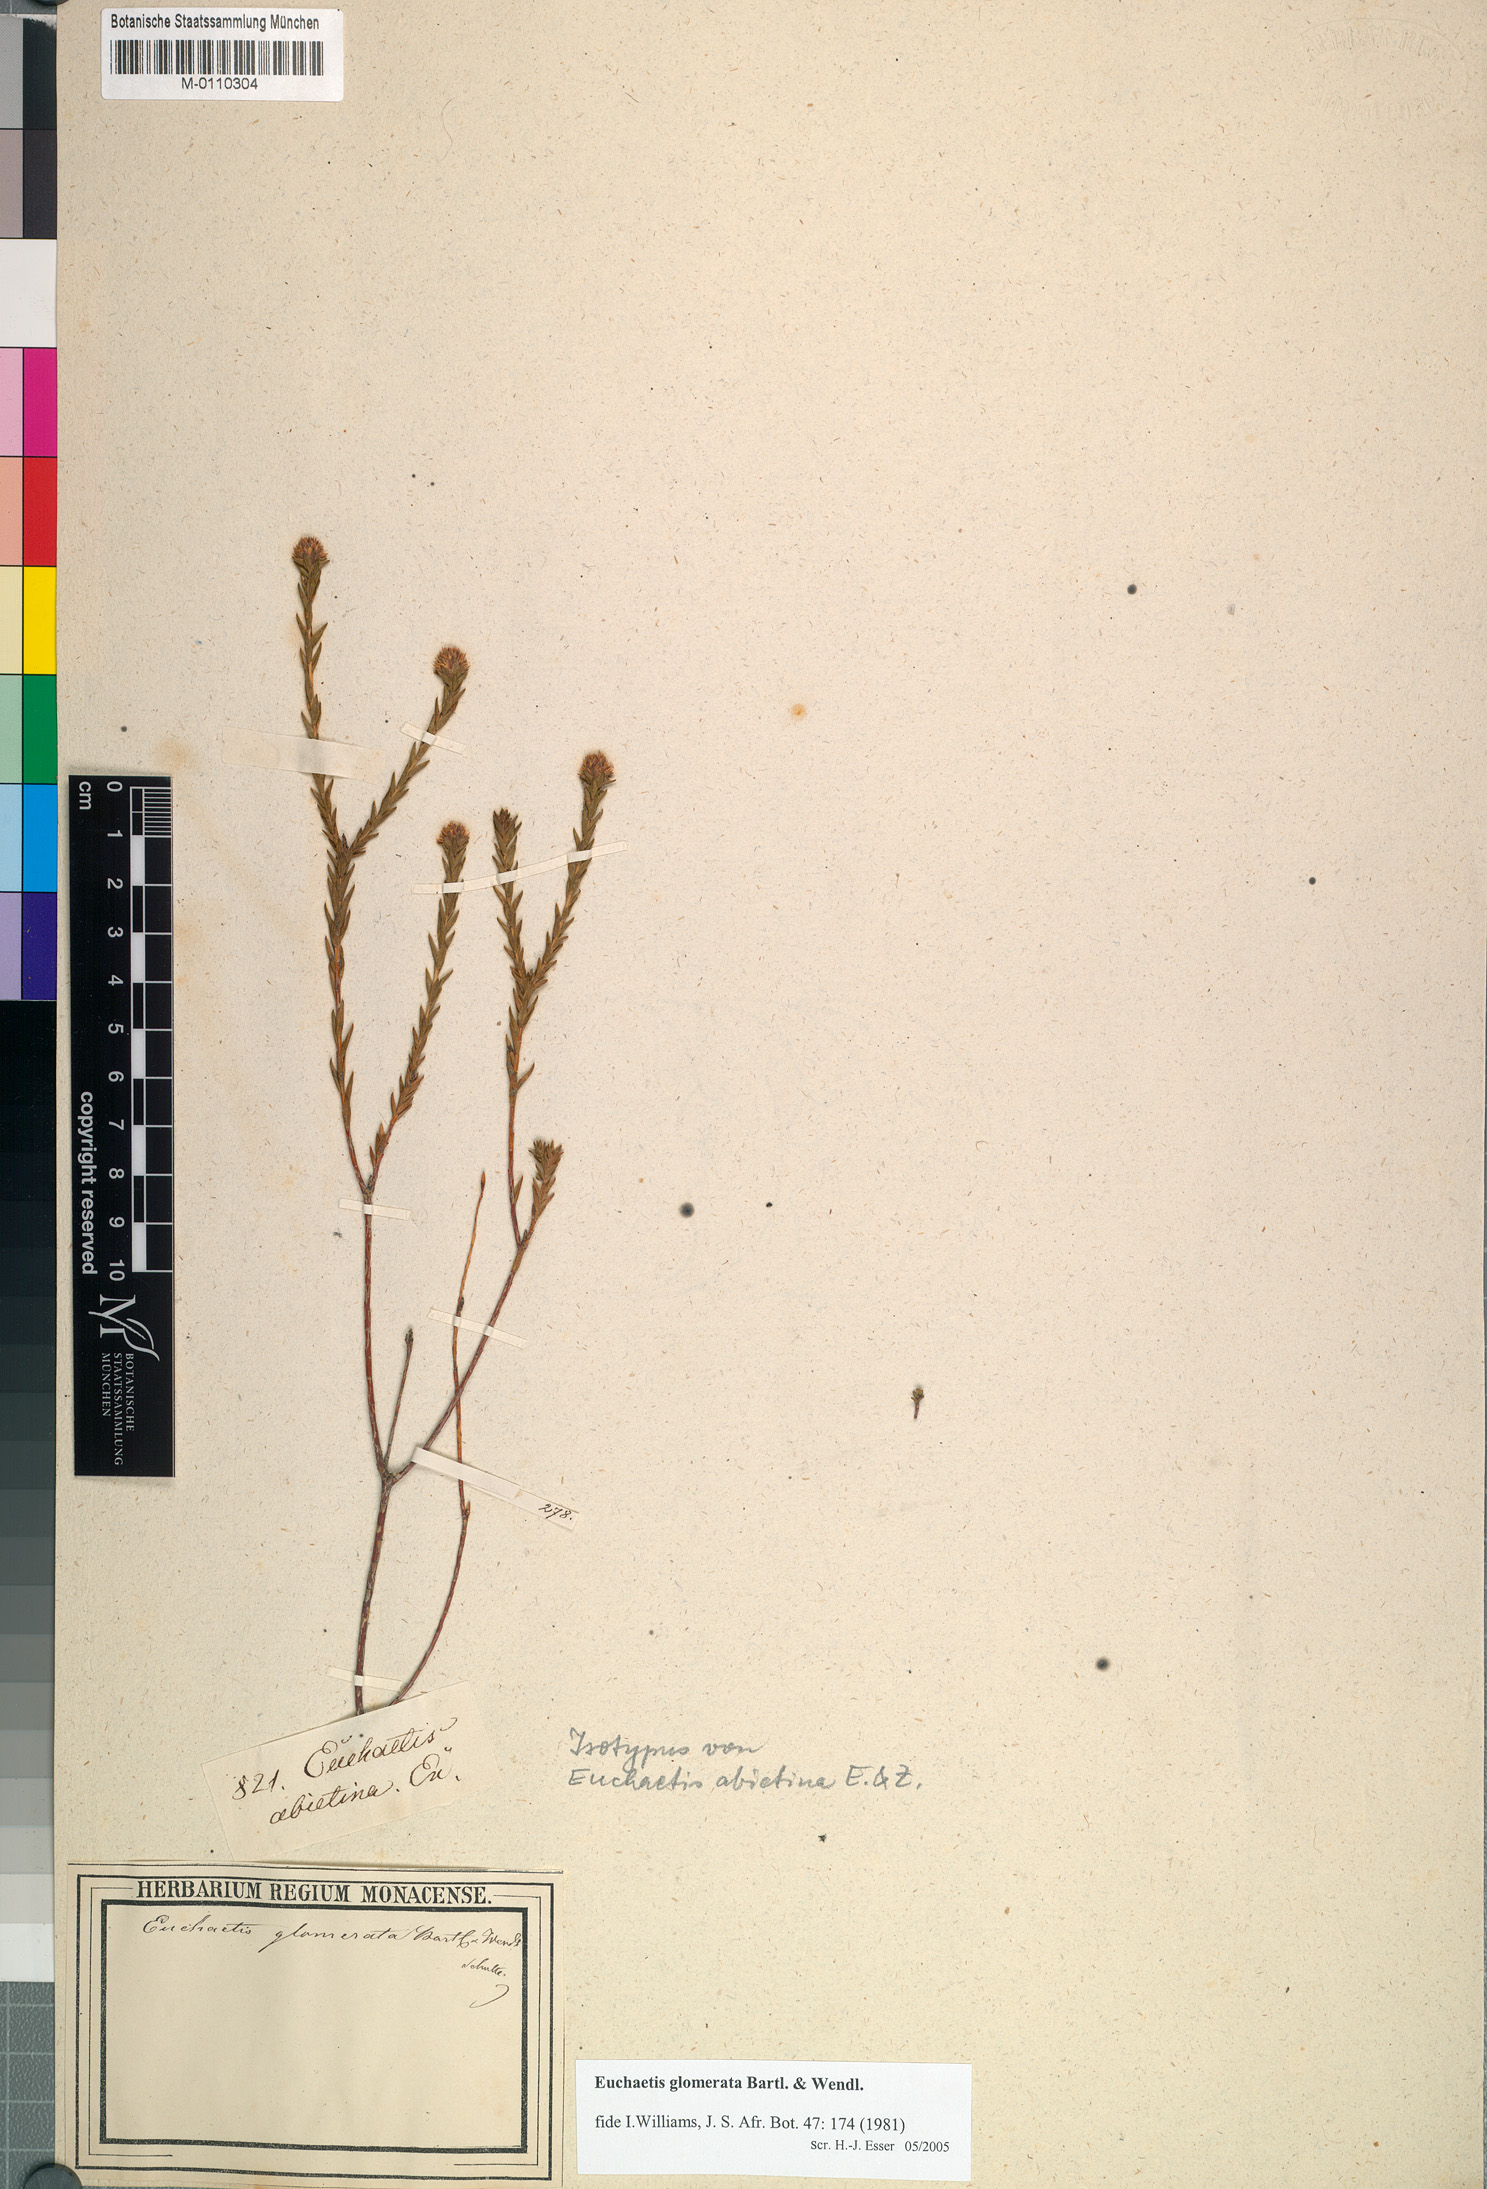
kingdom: Plantae
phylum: Tracheophyta
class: Magnoliopsida
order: Sapindales
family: Rutaceae
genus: Euchaetis
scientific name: Euchaetis glomerata
